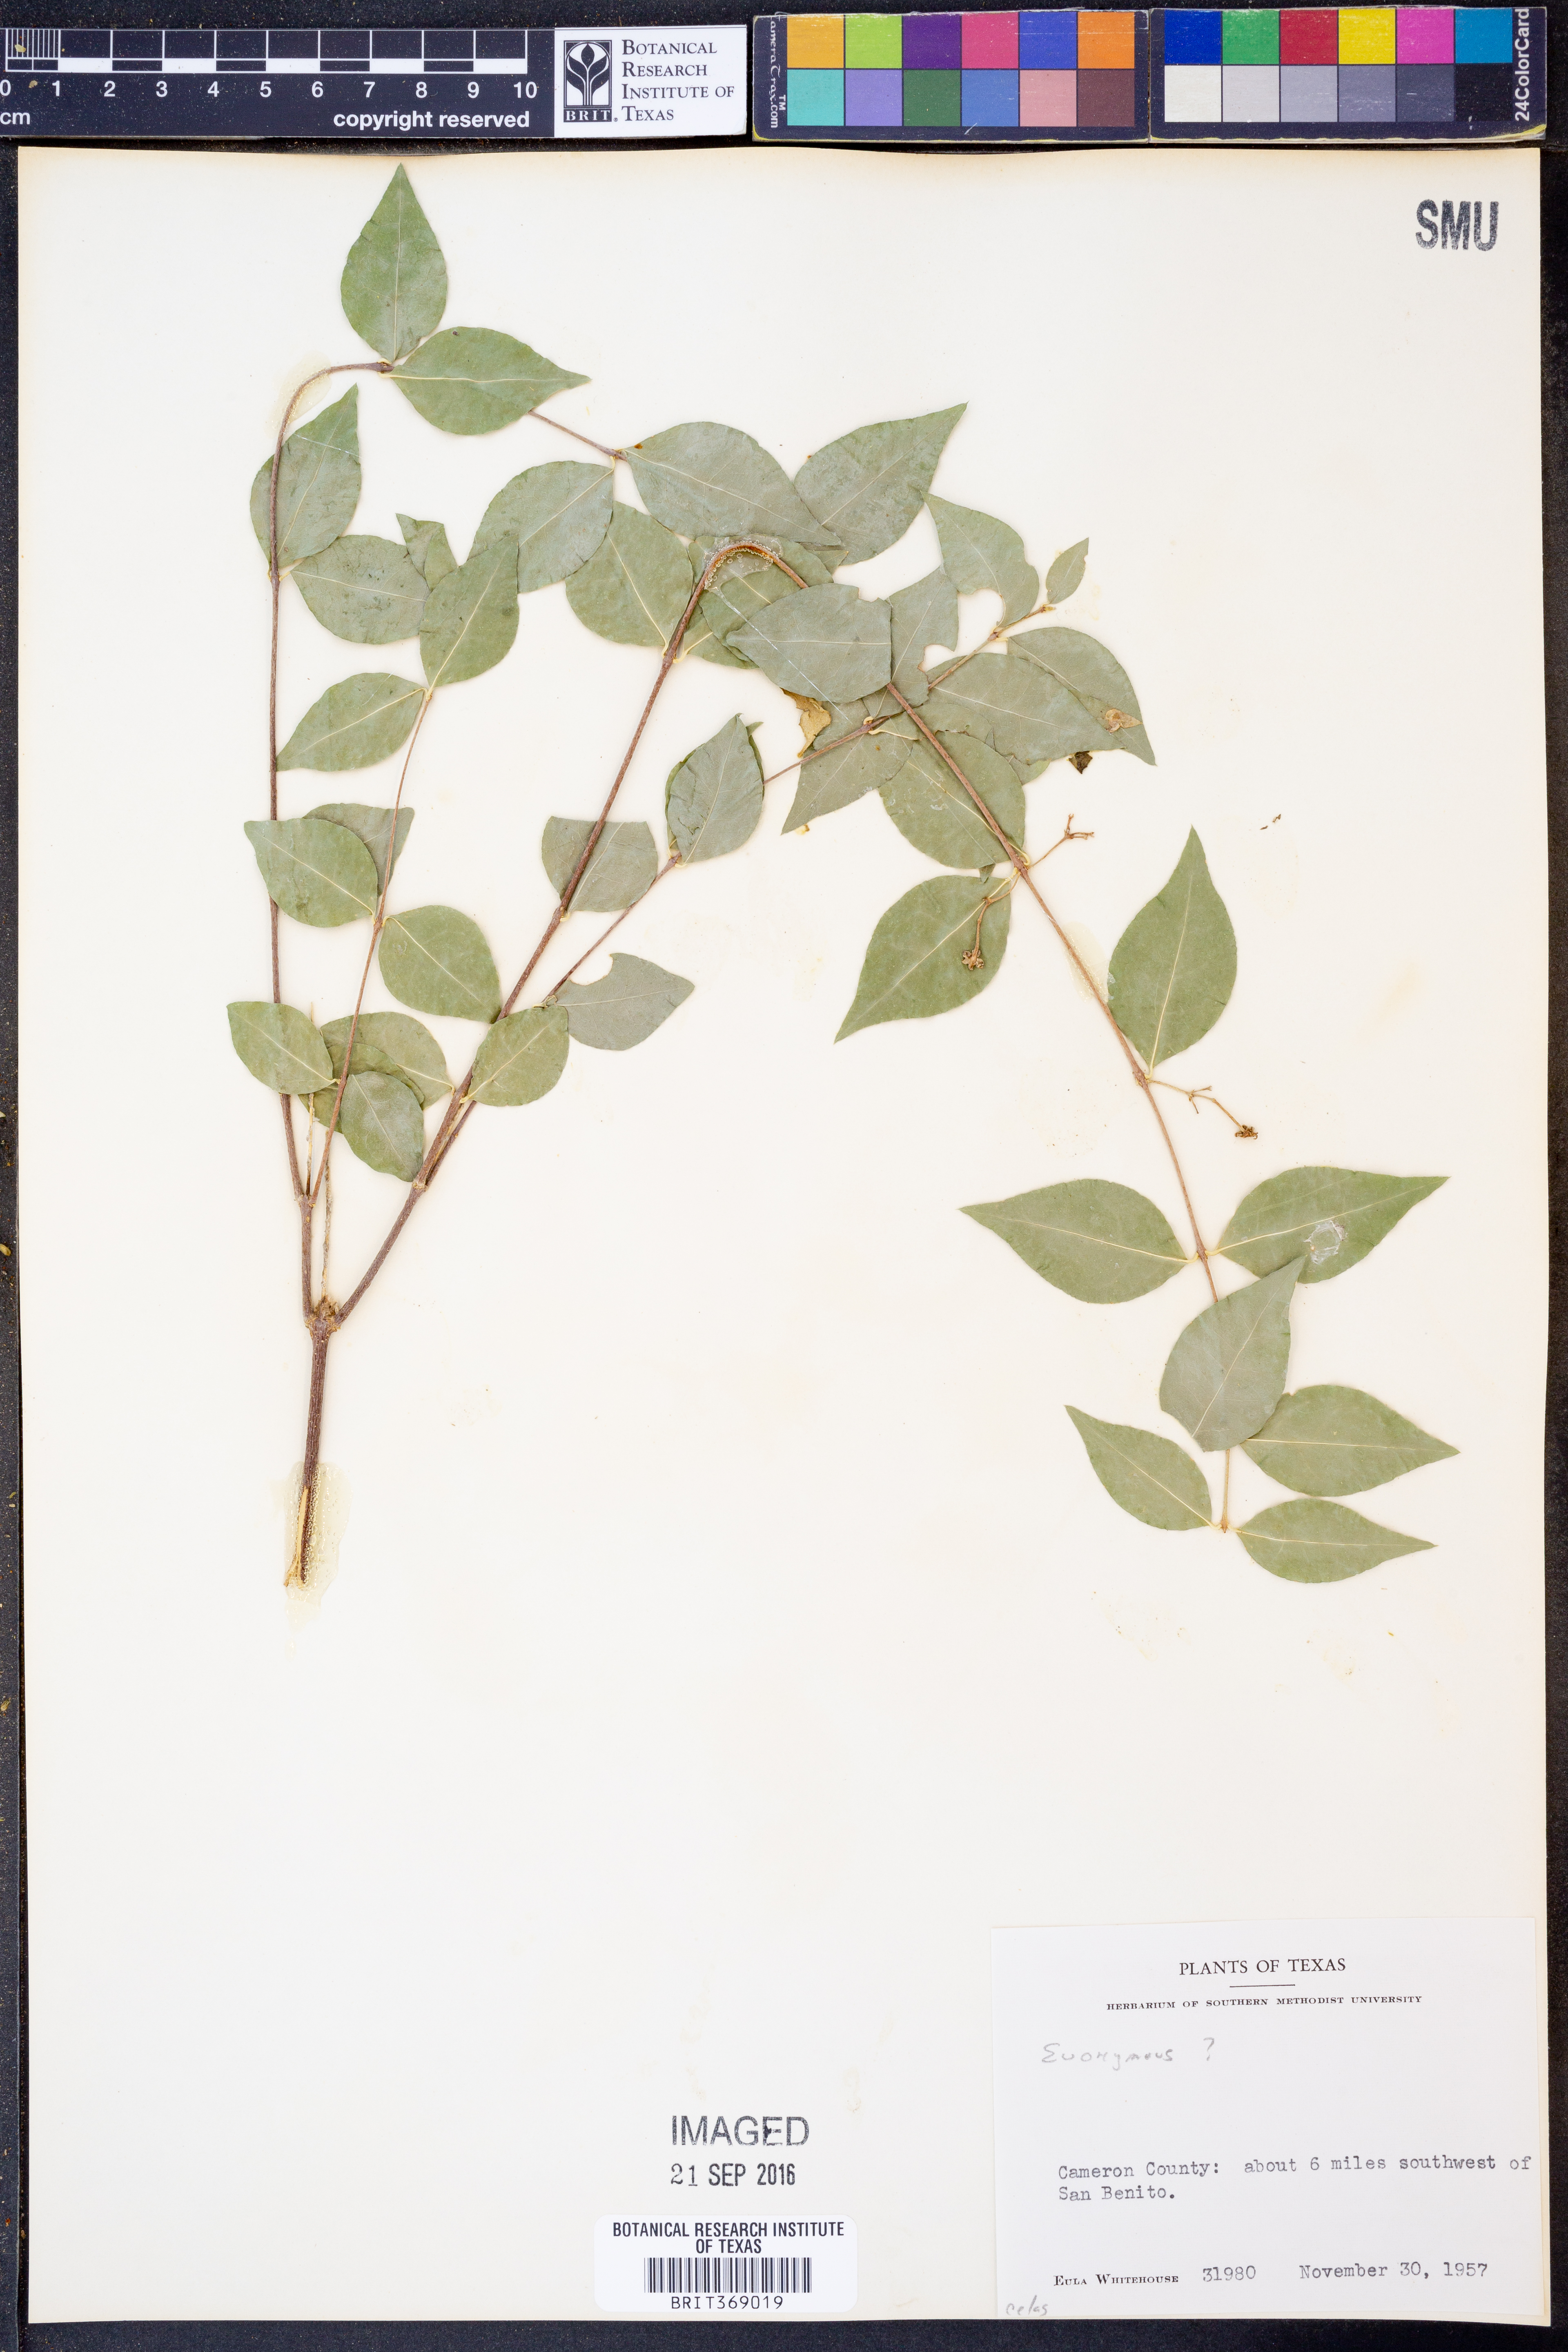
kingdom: Plantae
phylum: Tracheophyta
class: Magnoliopsida
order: Celastrales
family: Celastraceae
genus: Euonymus
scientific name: Euonymus
